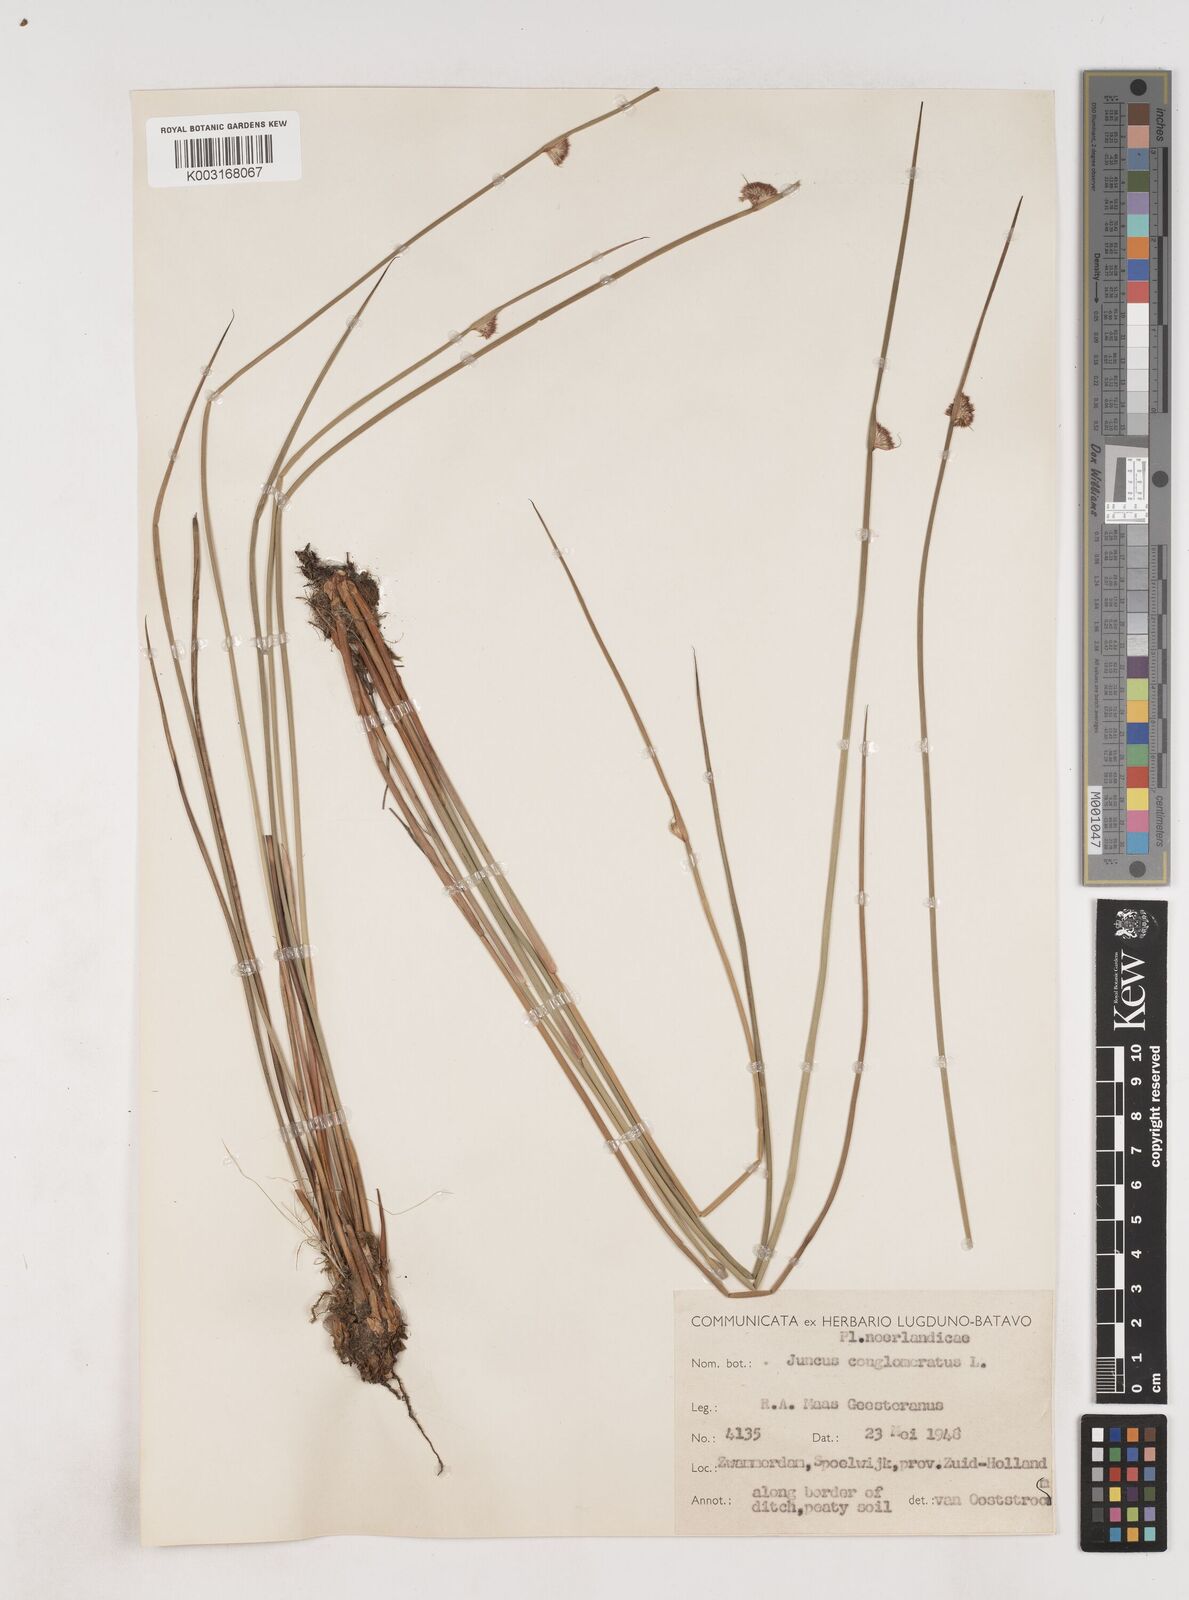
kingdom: Plantae
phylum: Tracheophyta
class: Liliopsida
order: Poales
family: Juncaceae
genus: Juncus
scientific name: Juncus conglomeratus
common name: Compact rush
